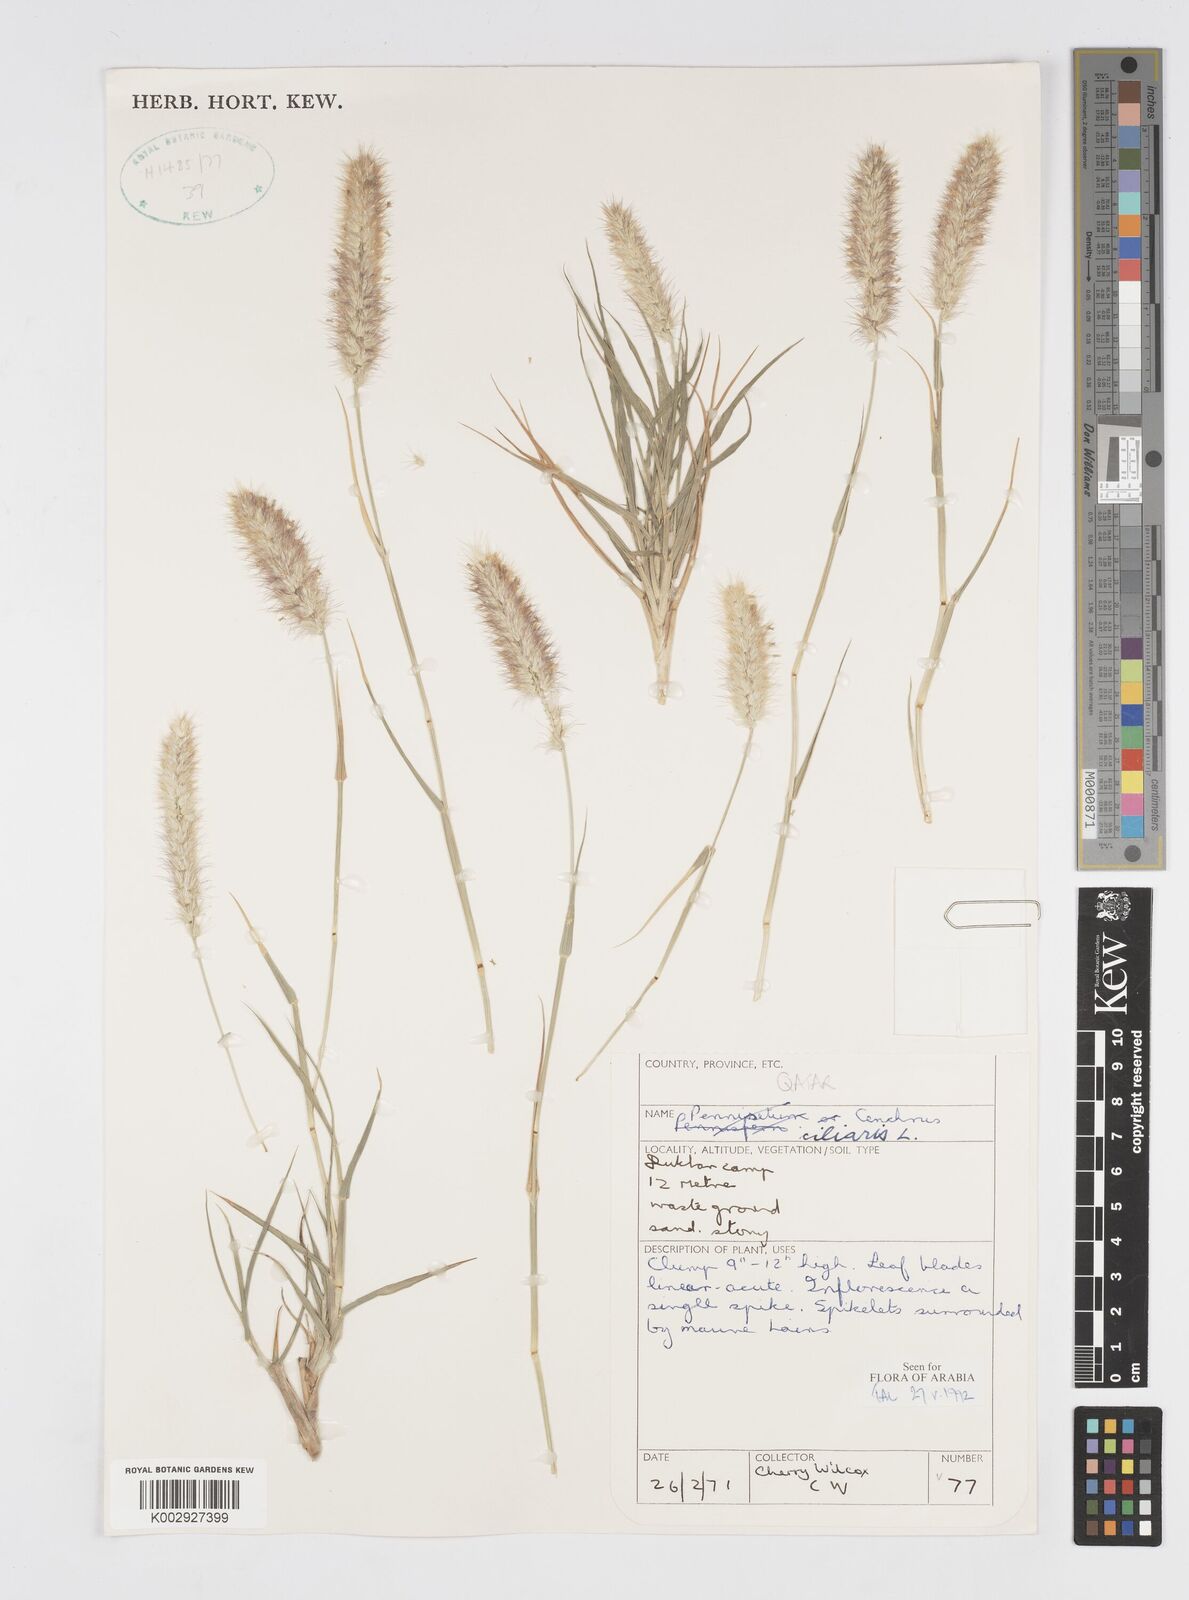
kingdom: Plantae
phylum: Tracheophyta
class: Liliopsida
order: Poales
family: Poaceae
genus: Cenchrus
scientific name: Cenchrus ciliaris
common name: Buffelgrass
